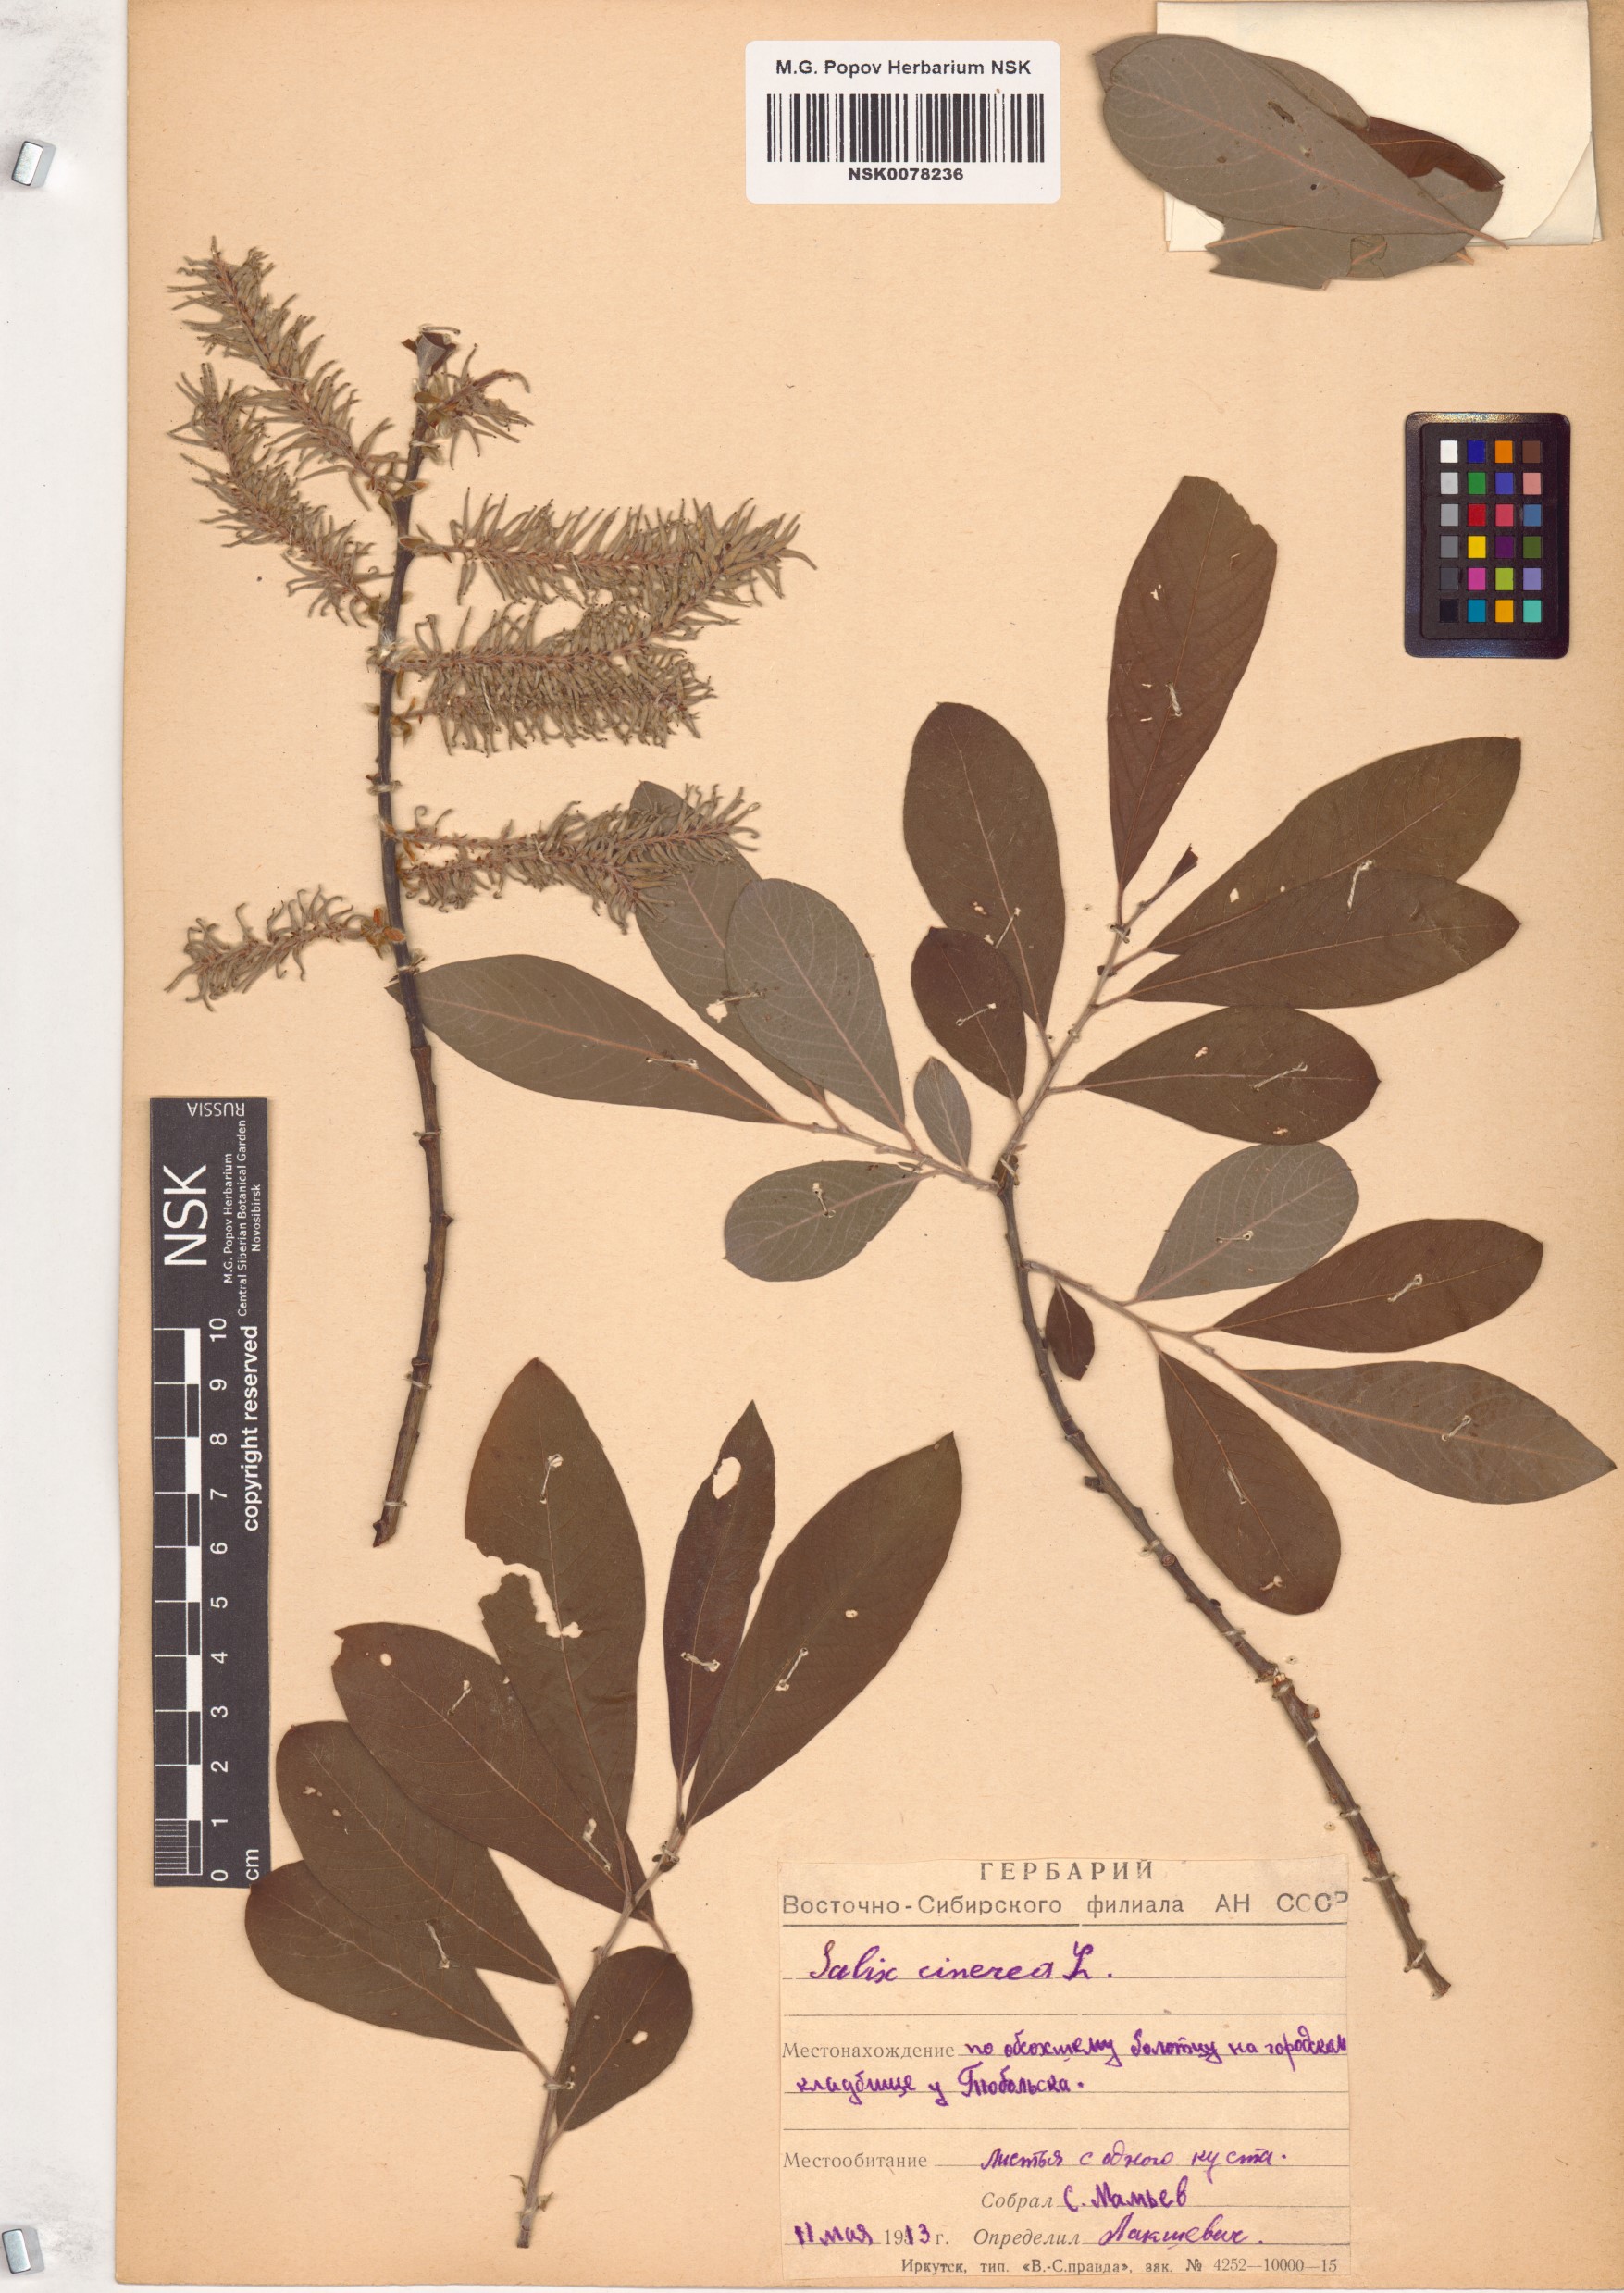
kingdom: Plantae
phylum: Tracheophyta
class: Magnoliopsida
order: Malpighiales
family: Salicaceae
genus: Salix
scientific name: Salix cinerea
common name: Common sallow
